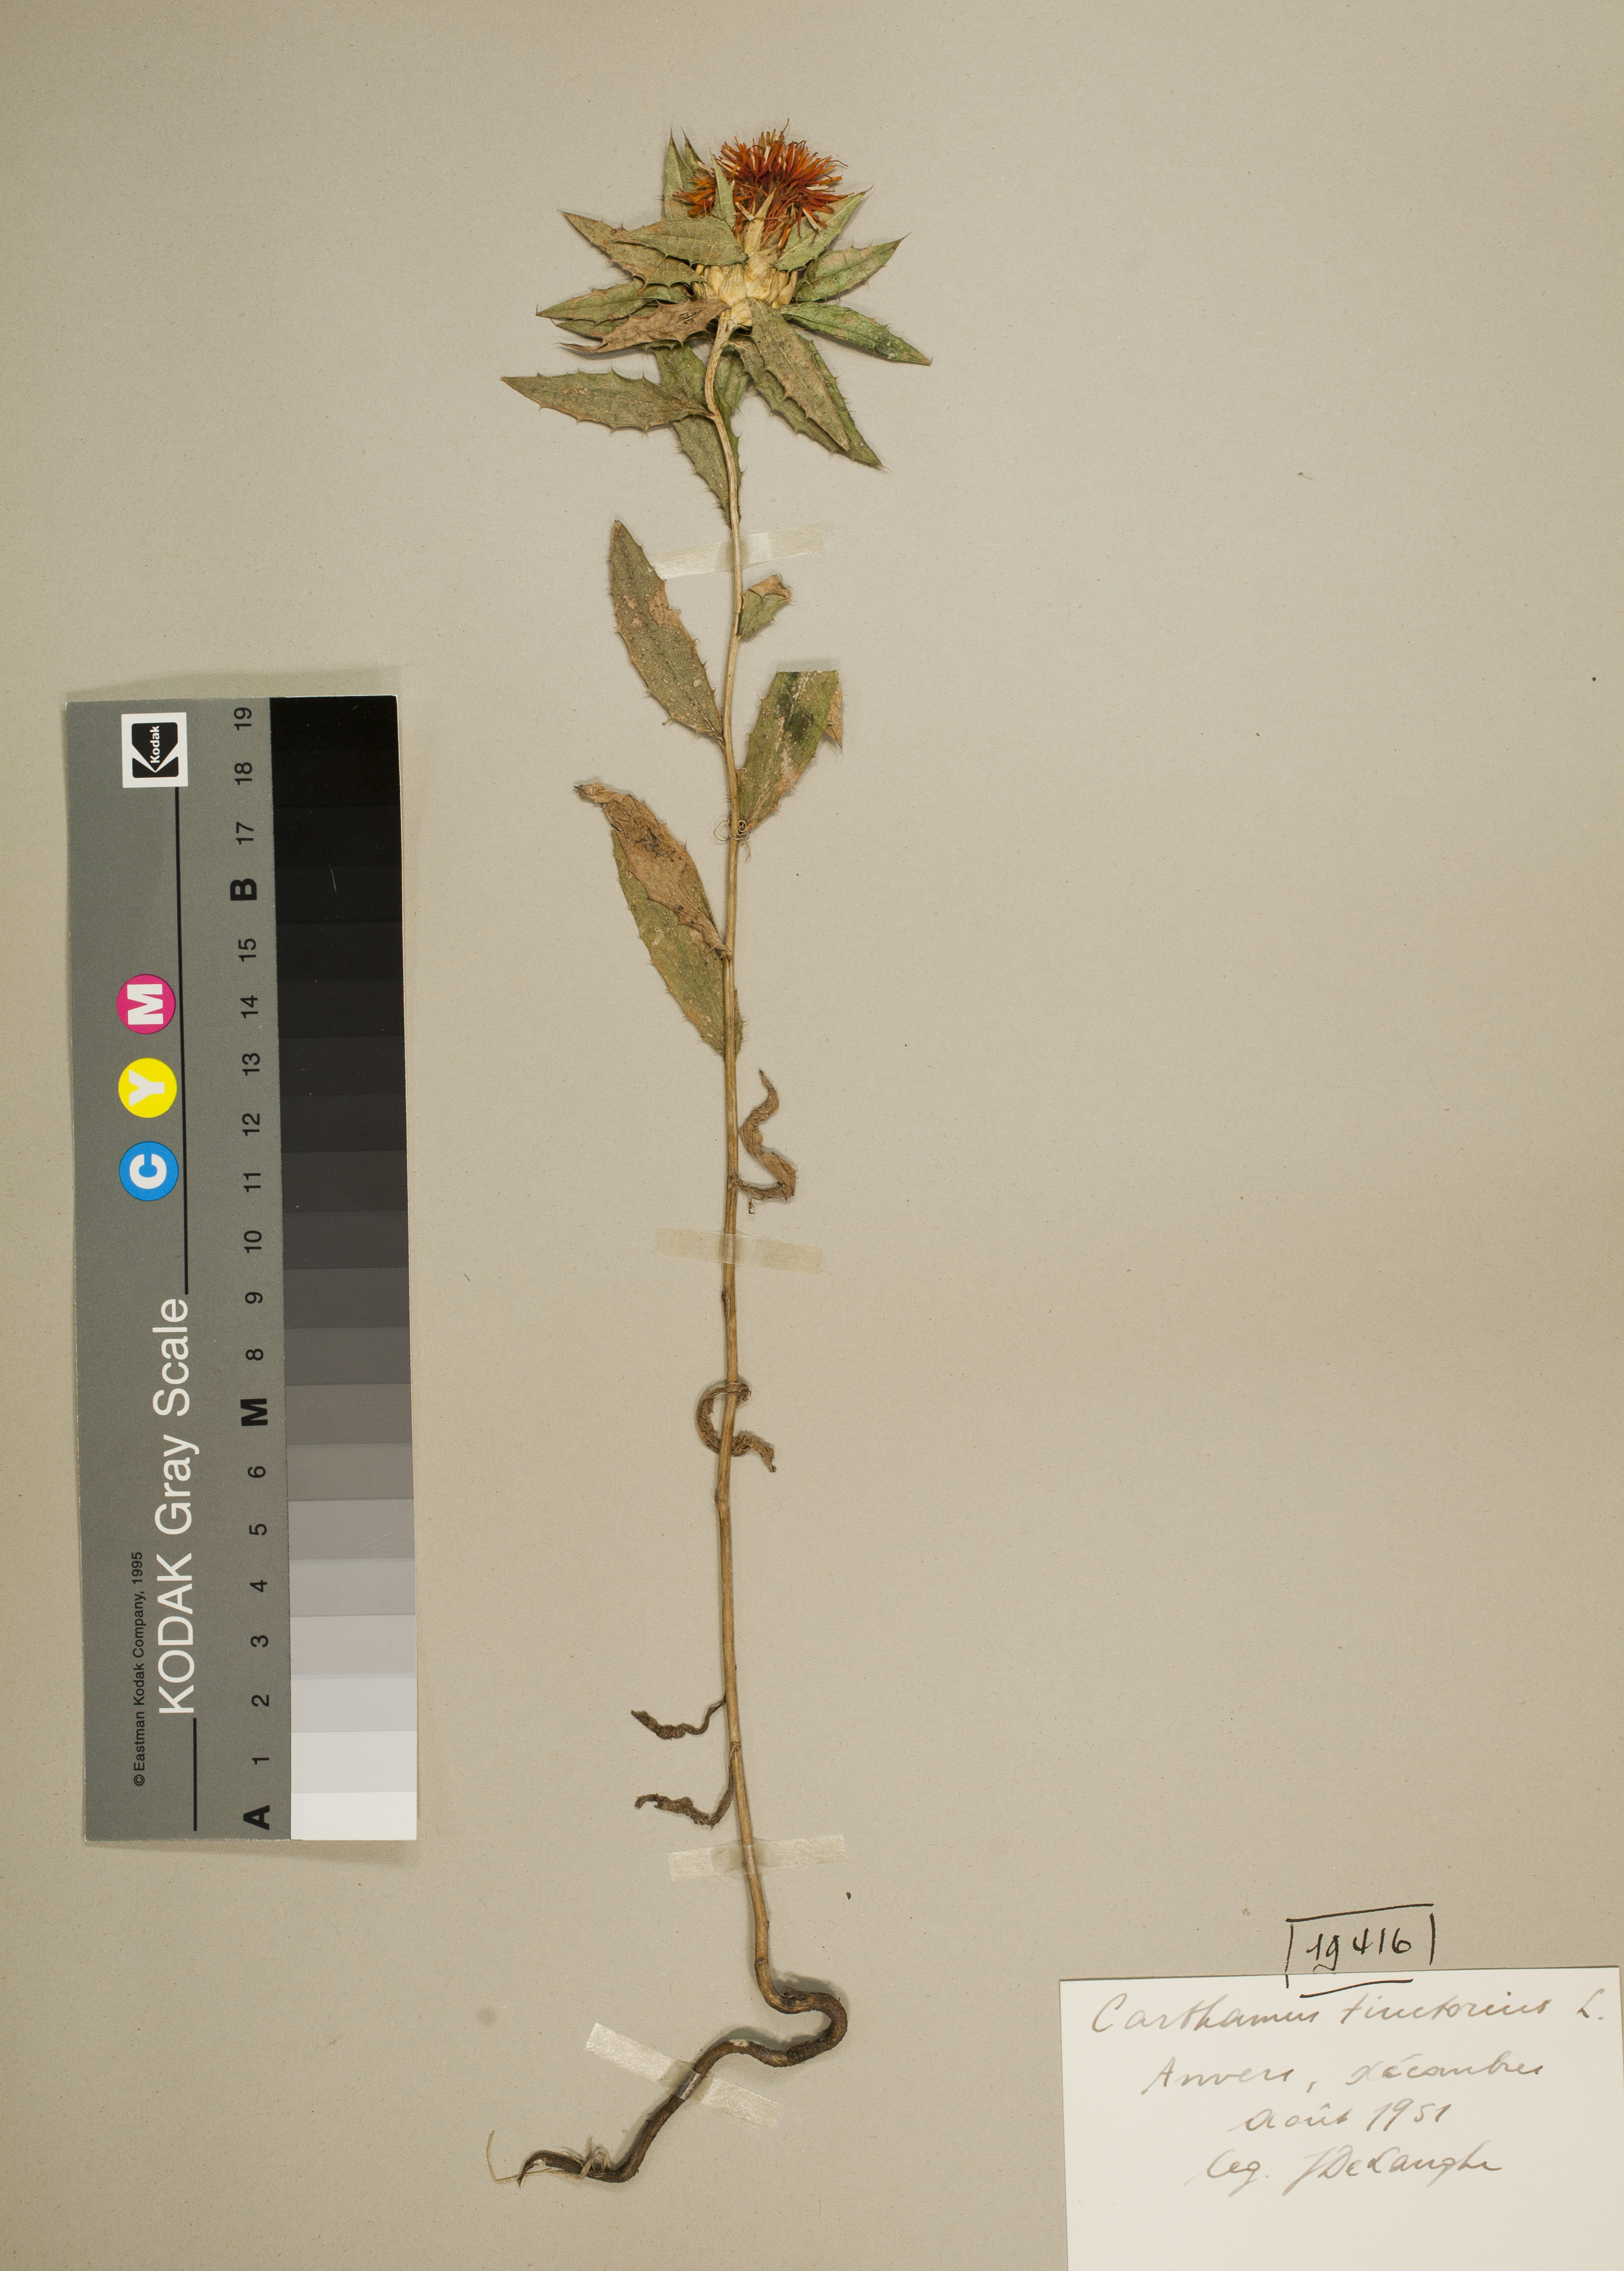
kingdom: Plantae
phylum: Tracheophyta
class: Magnoliopsida
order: Asterales
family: Asteraceae
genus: Carthamus
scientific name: Carthamus tinctorius
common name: Safflower
